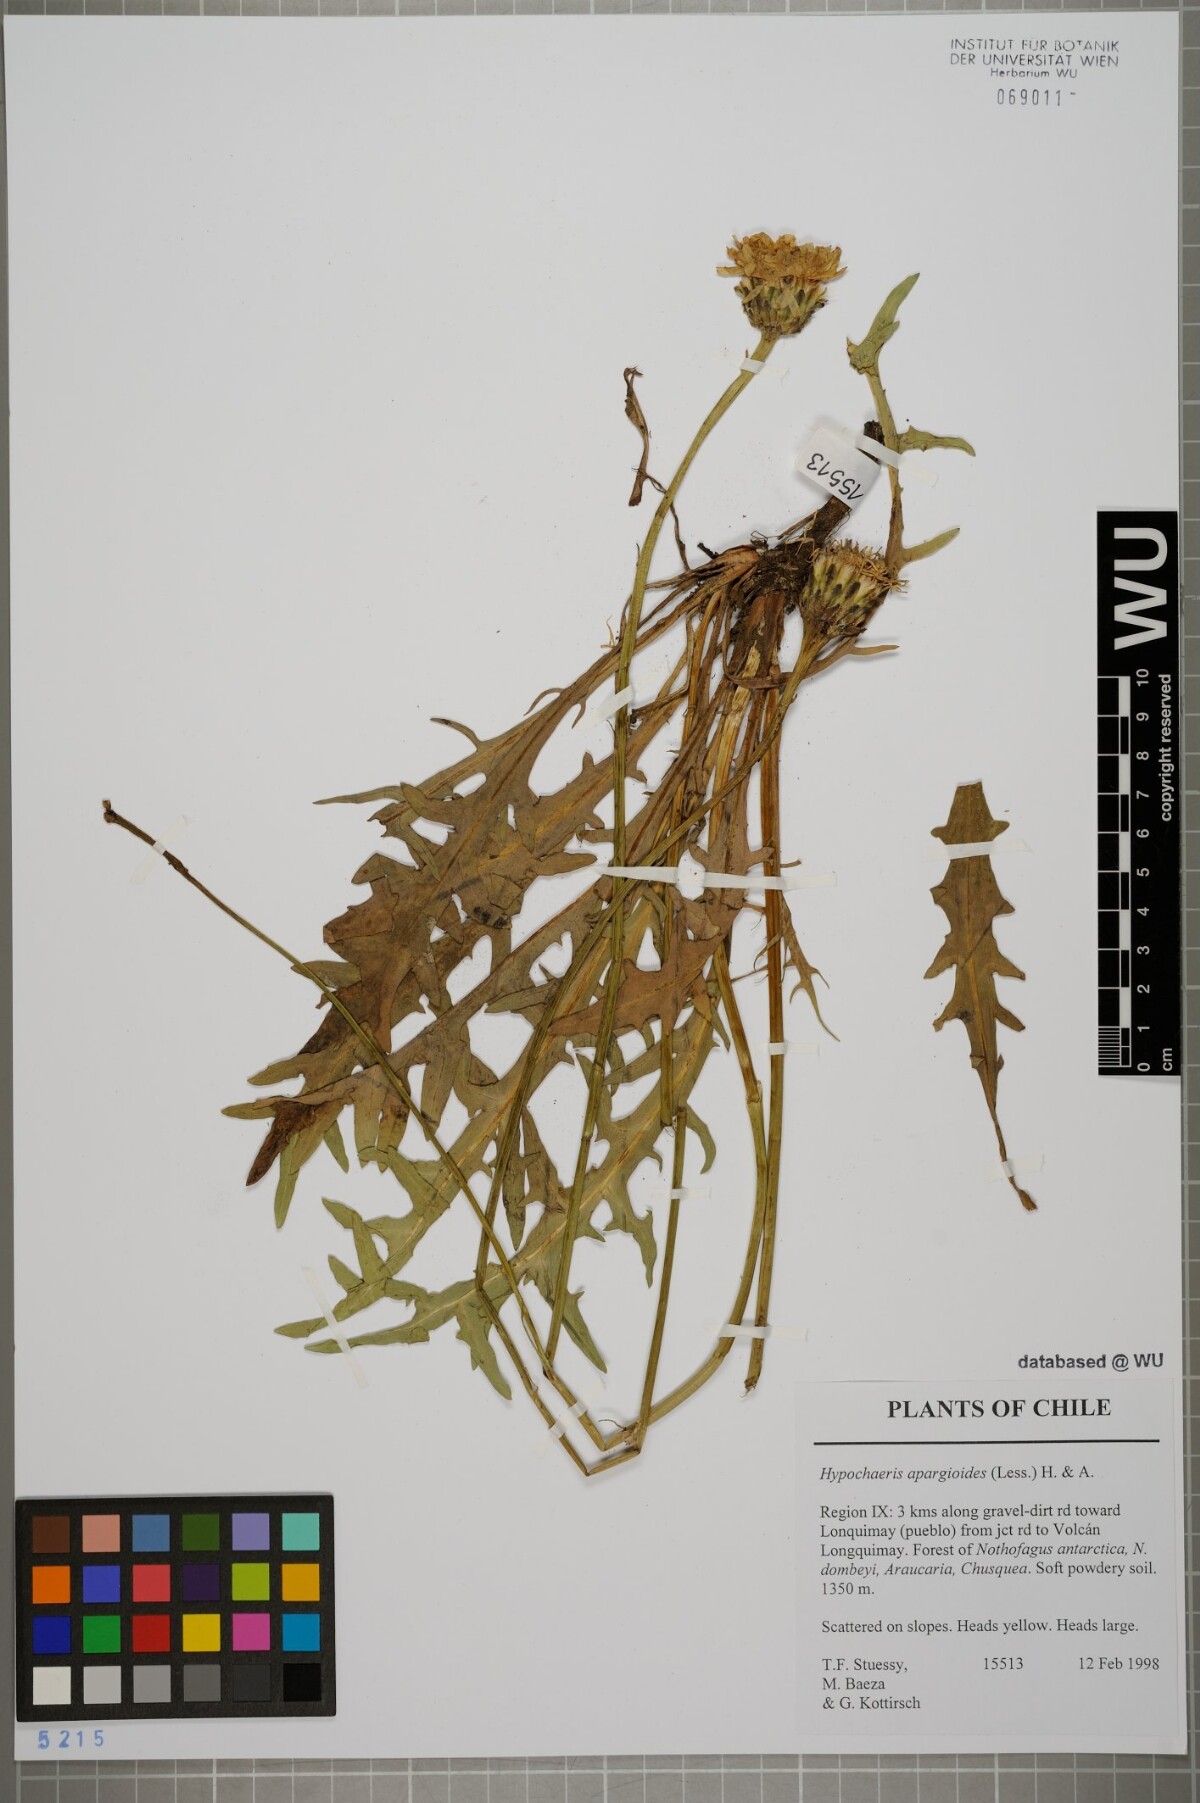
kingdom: Plantae
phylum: Tracheophyta
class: Magnoliopsida
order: Asterales
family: Asteraceae
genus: Hypochaeris
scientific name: Hypochaeris apargioides
